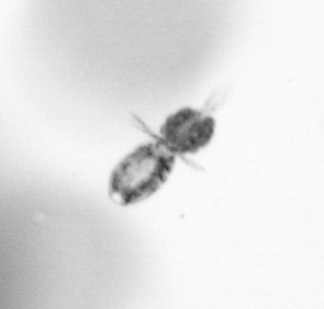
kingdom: Animalia
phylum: Arthropoda
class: Copepoda
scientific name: Copepoda
